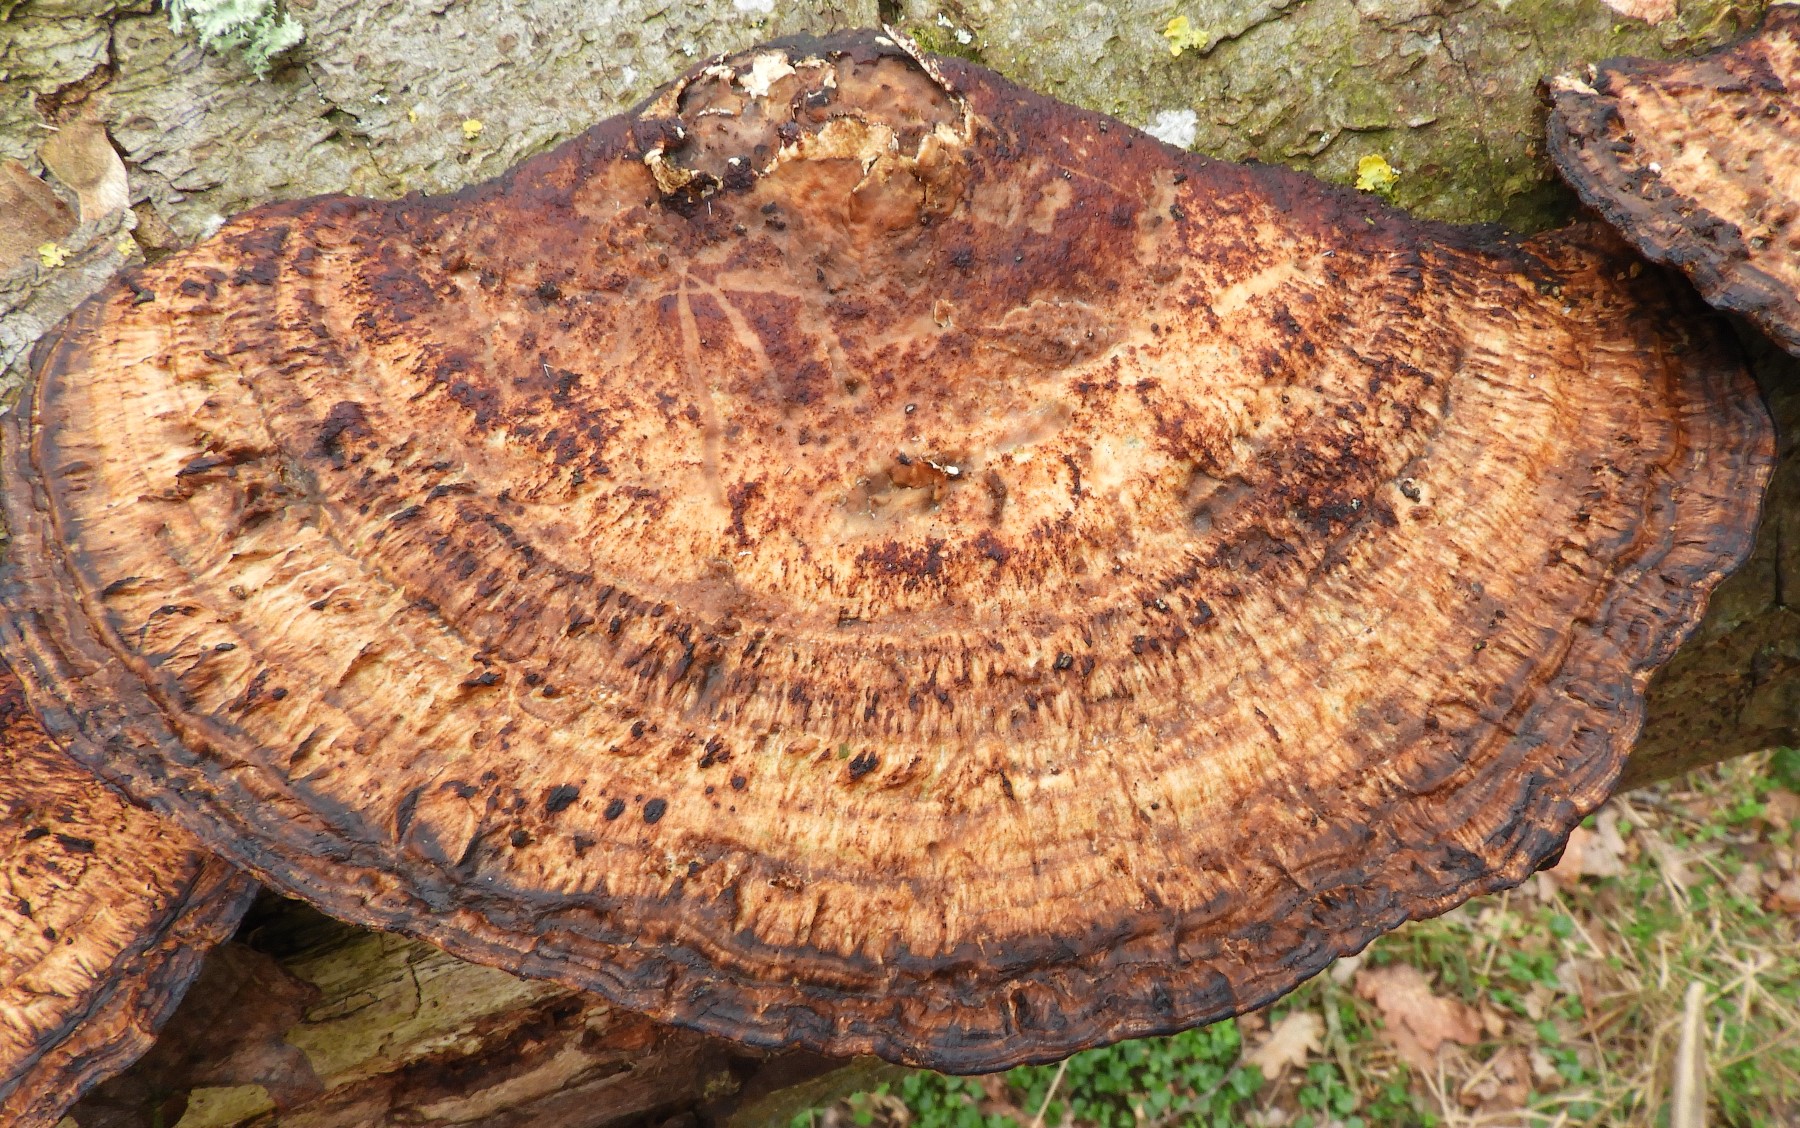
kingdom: Fungi
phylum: Basidiomycota
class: Agaricomycetes
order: Polyporales
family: Polyporaceae
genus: Daedaleopsis
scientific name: Daedaleopsis confragosa
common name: rødmende læderporesvamp
